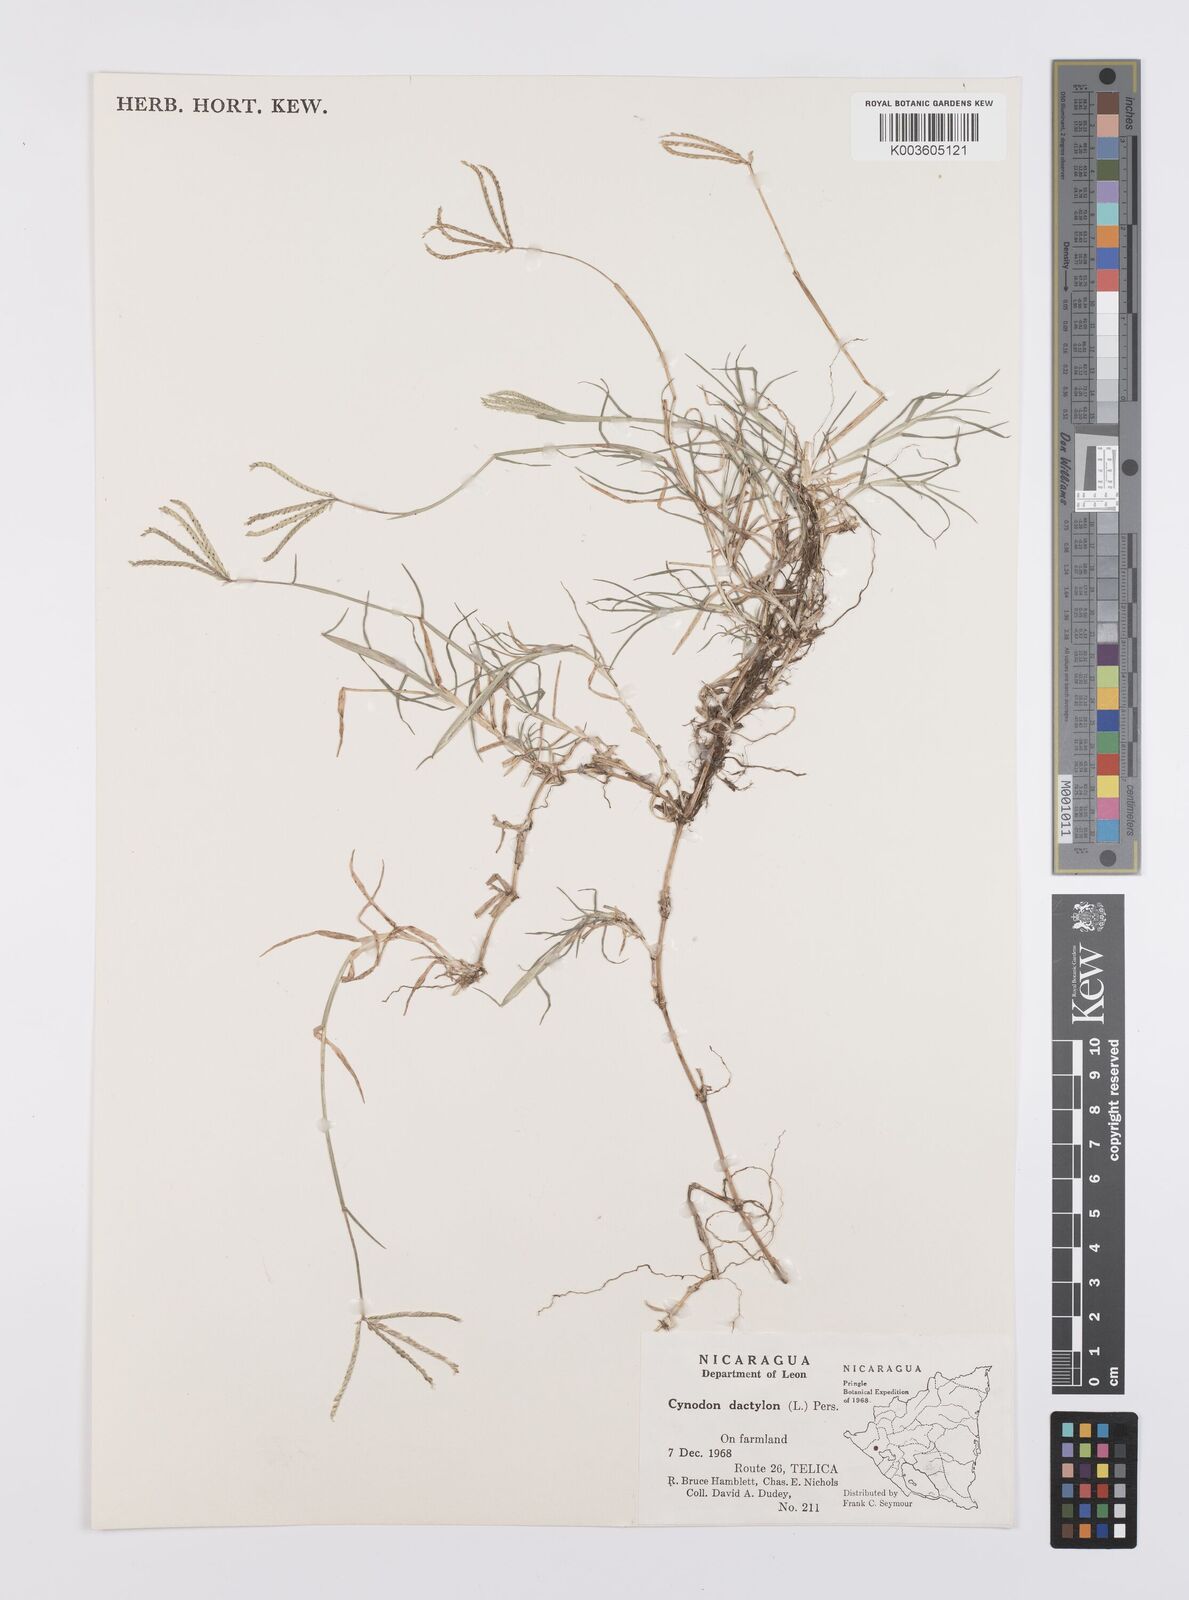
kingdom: Plantae
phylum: Tracheophyta
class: Liliopsida
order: Poales
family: Poaceae
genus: Cynodon
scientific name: Cynodon dactylon
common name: Bermuda grass
